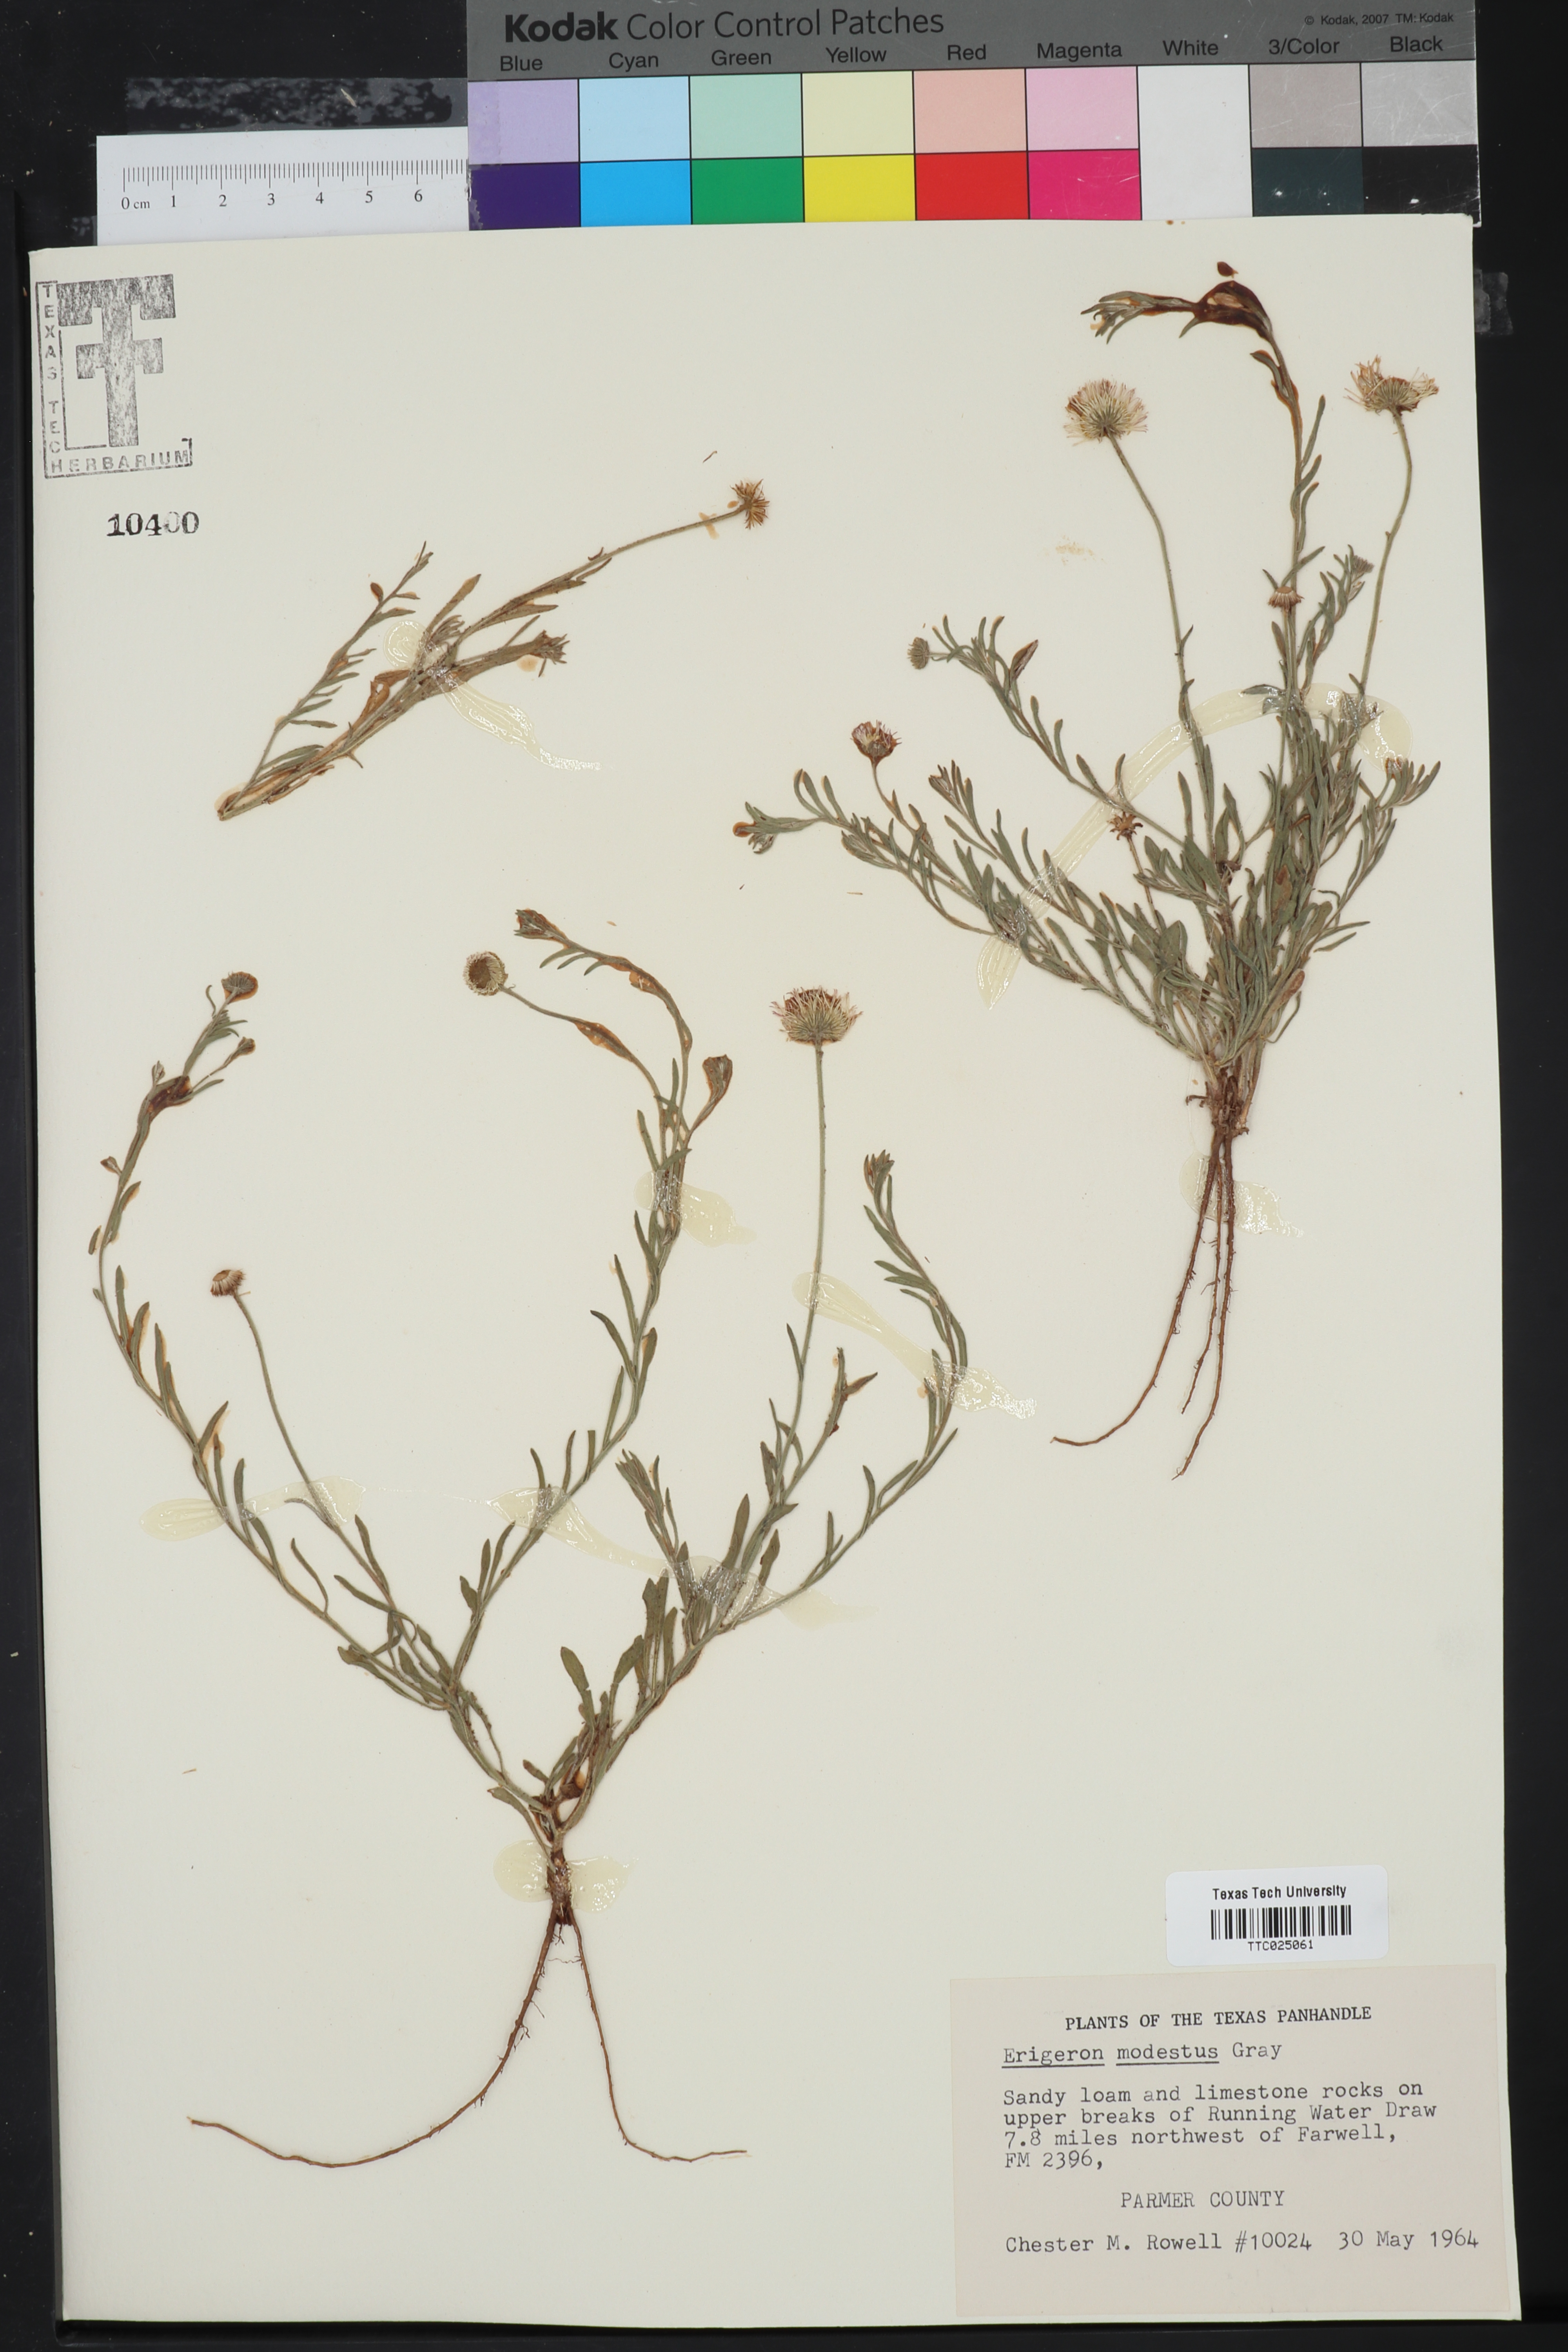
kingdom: Plantae
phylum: Tracheophyta
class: Magnoliopsida
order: Asterales
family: Asteraceae
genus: Erigeron
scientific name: Erigeron modestus
